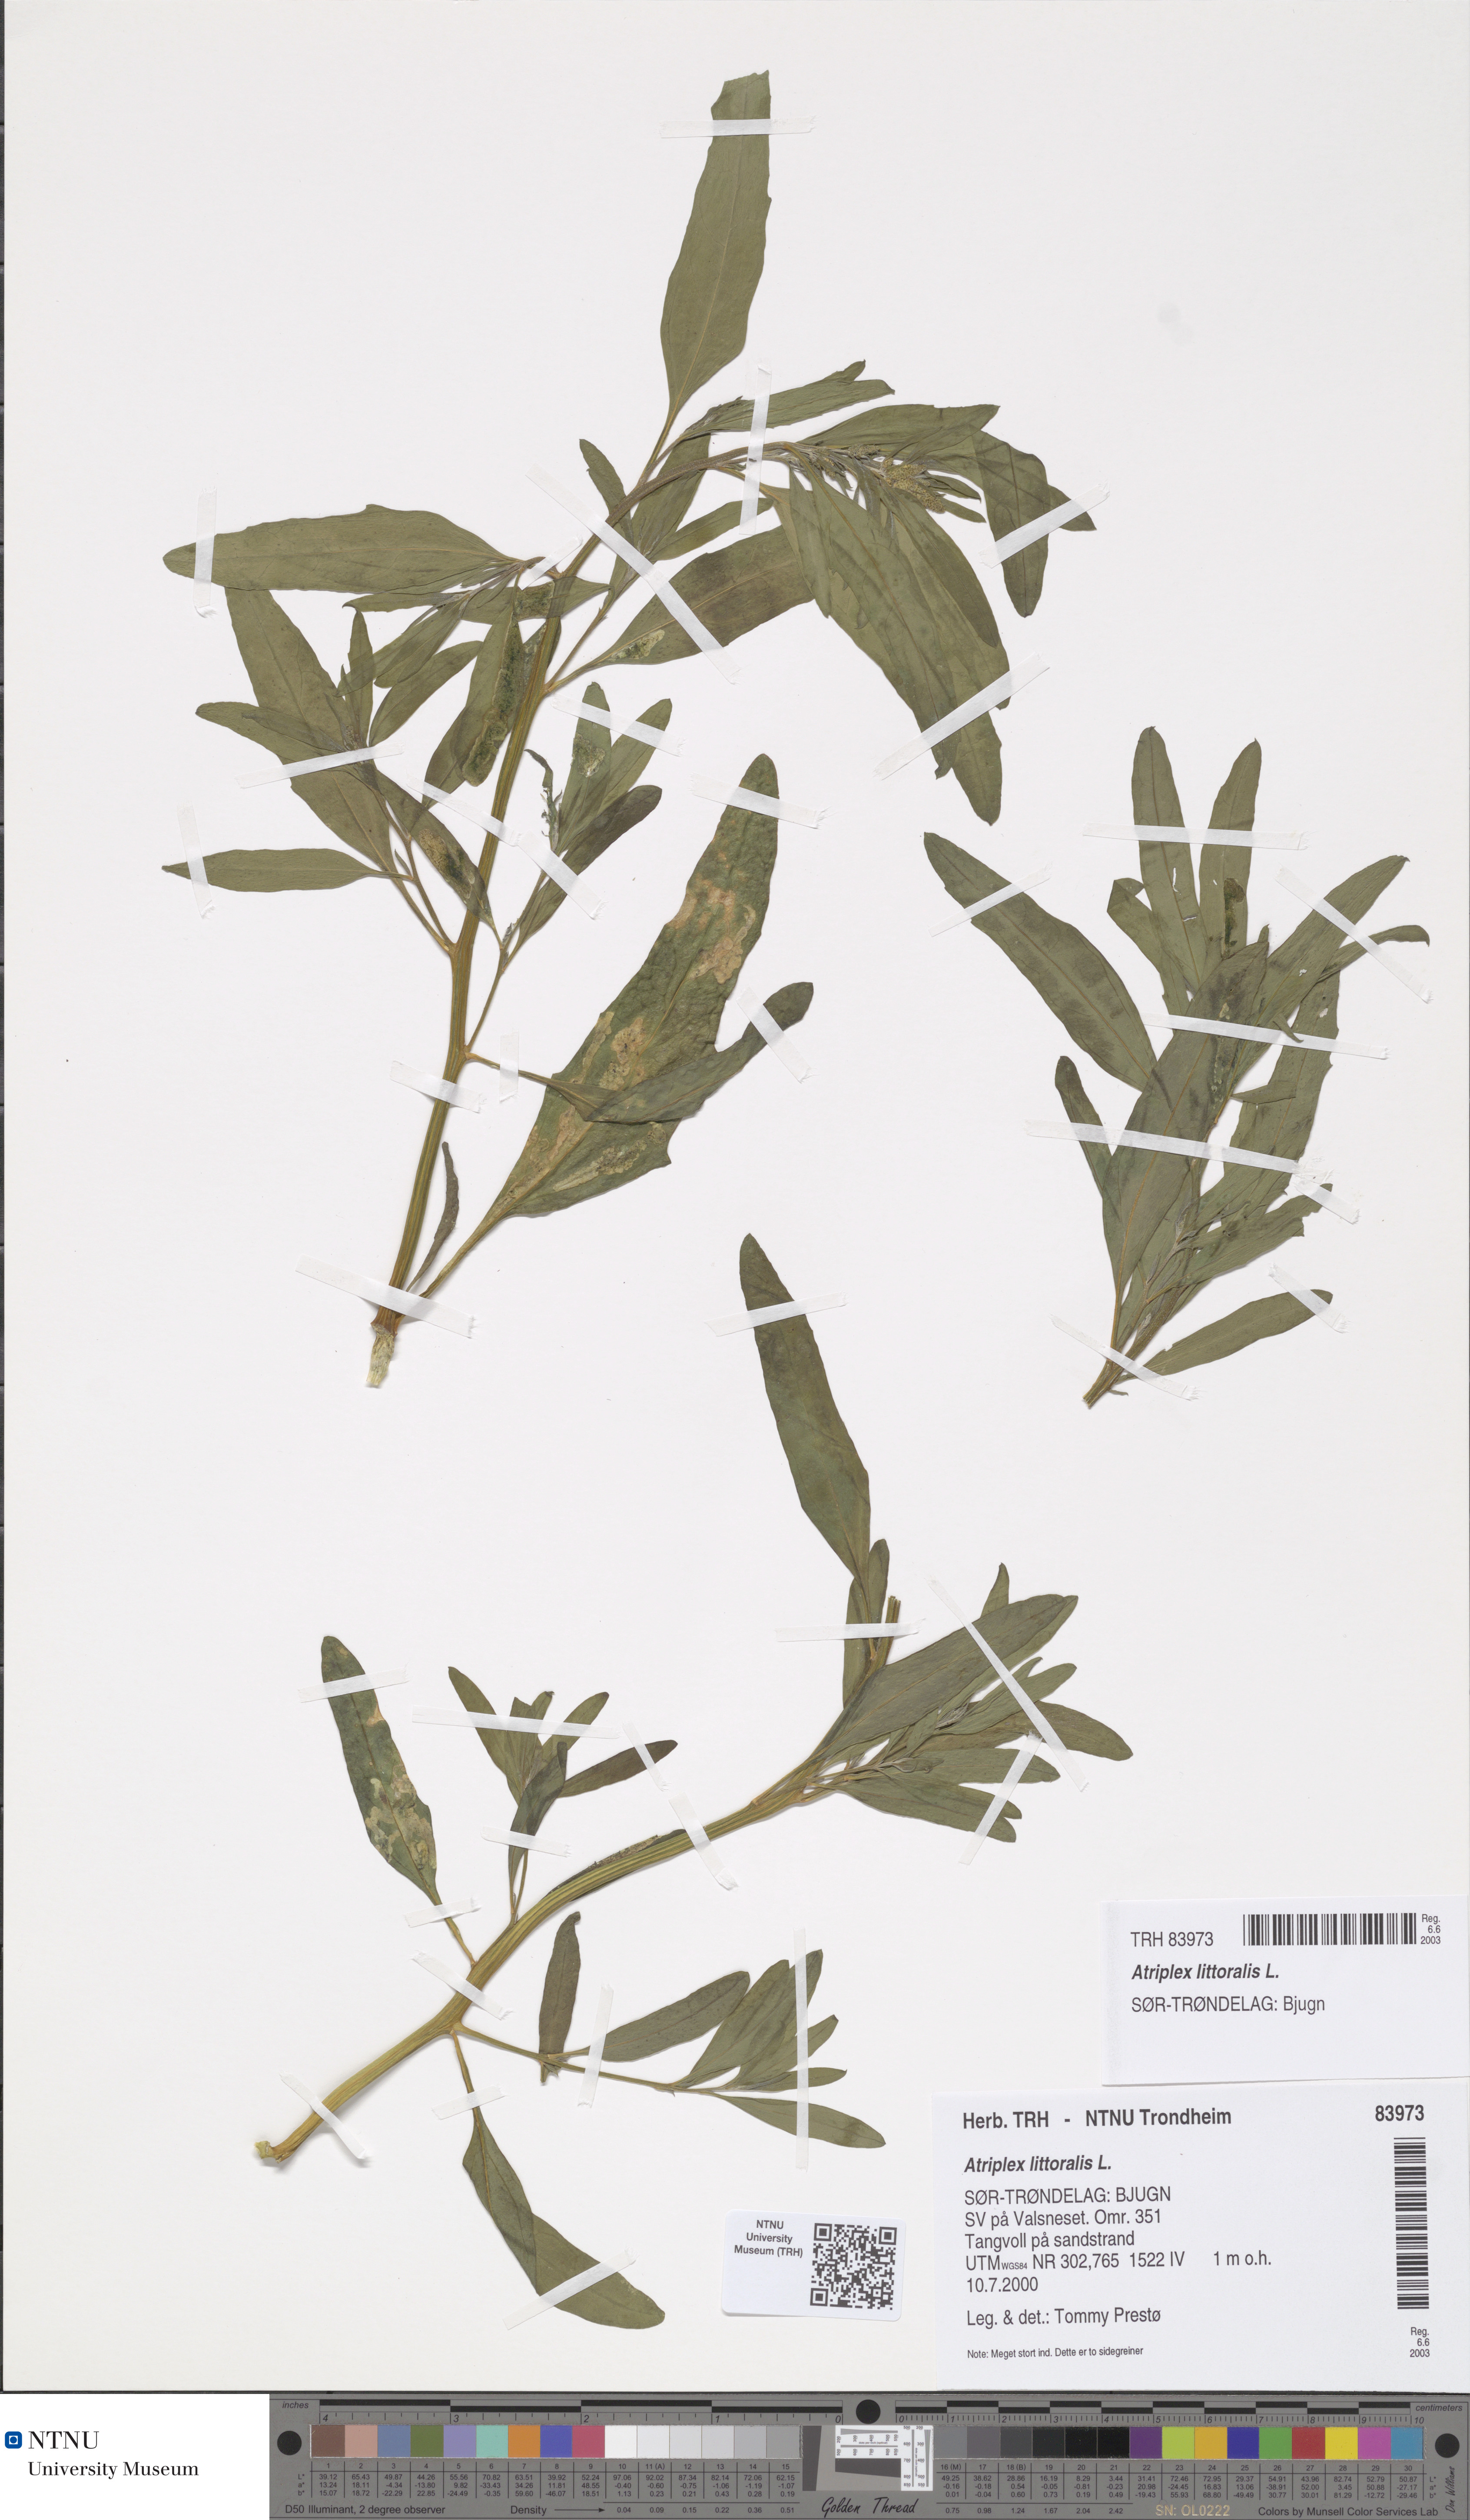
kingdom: Plantae
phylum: Tracheophyta
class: Magnoliopsida
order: Caryophyllales
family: Amaranthaceae
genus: Atriplex
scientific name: Atriplex littoralis
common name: Grass-leaved orache
